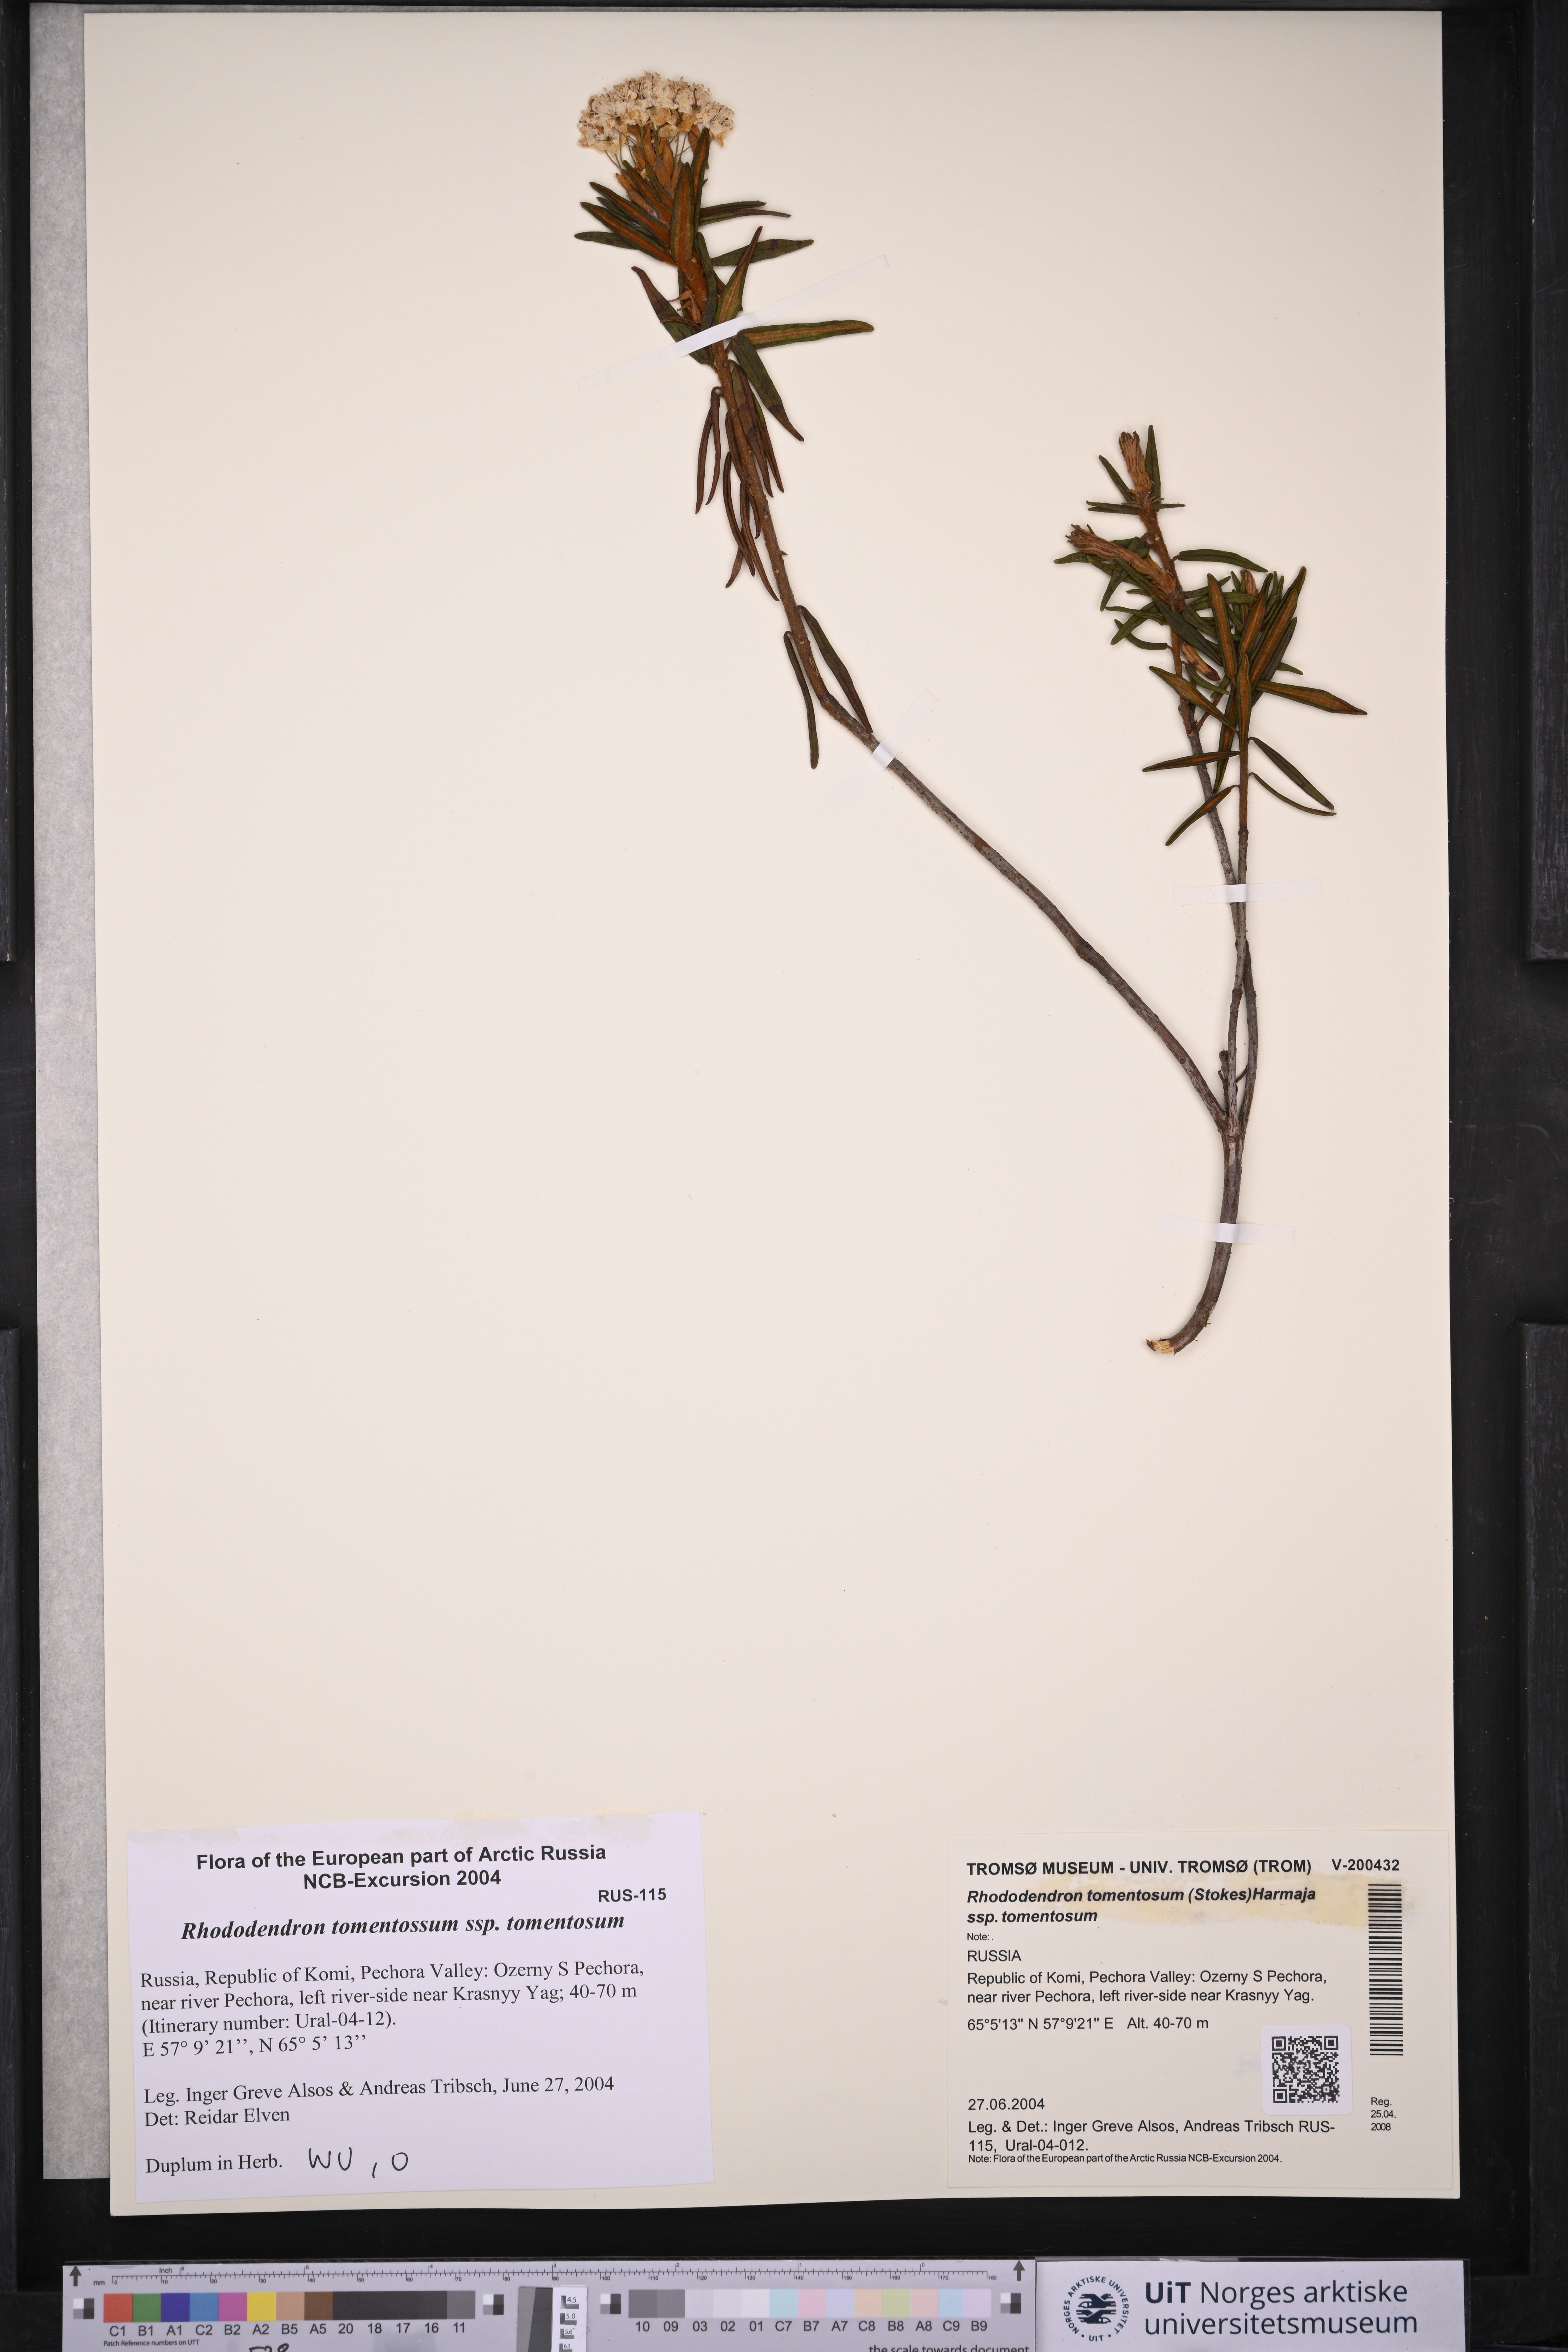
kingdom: Plantae
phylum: Tracheophyta
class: Magnoliopsida
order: Ericales
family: Ericaceae
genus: Rhododendron
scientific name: Rhododendron tomentosum
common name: Marsh labrador tea
